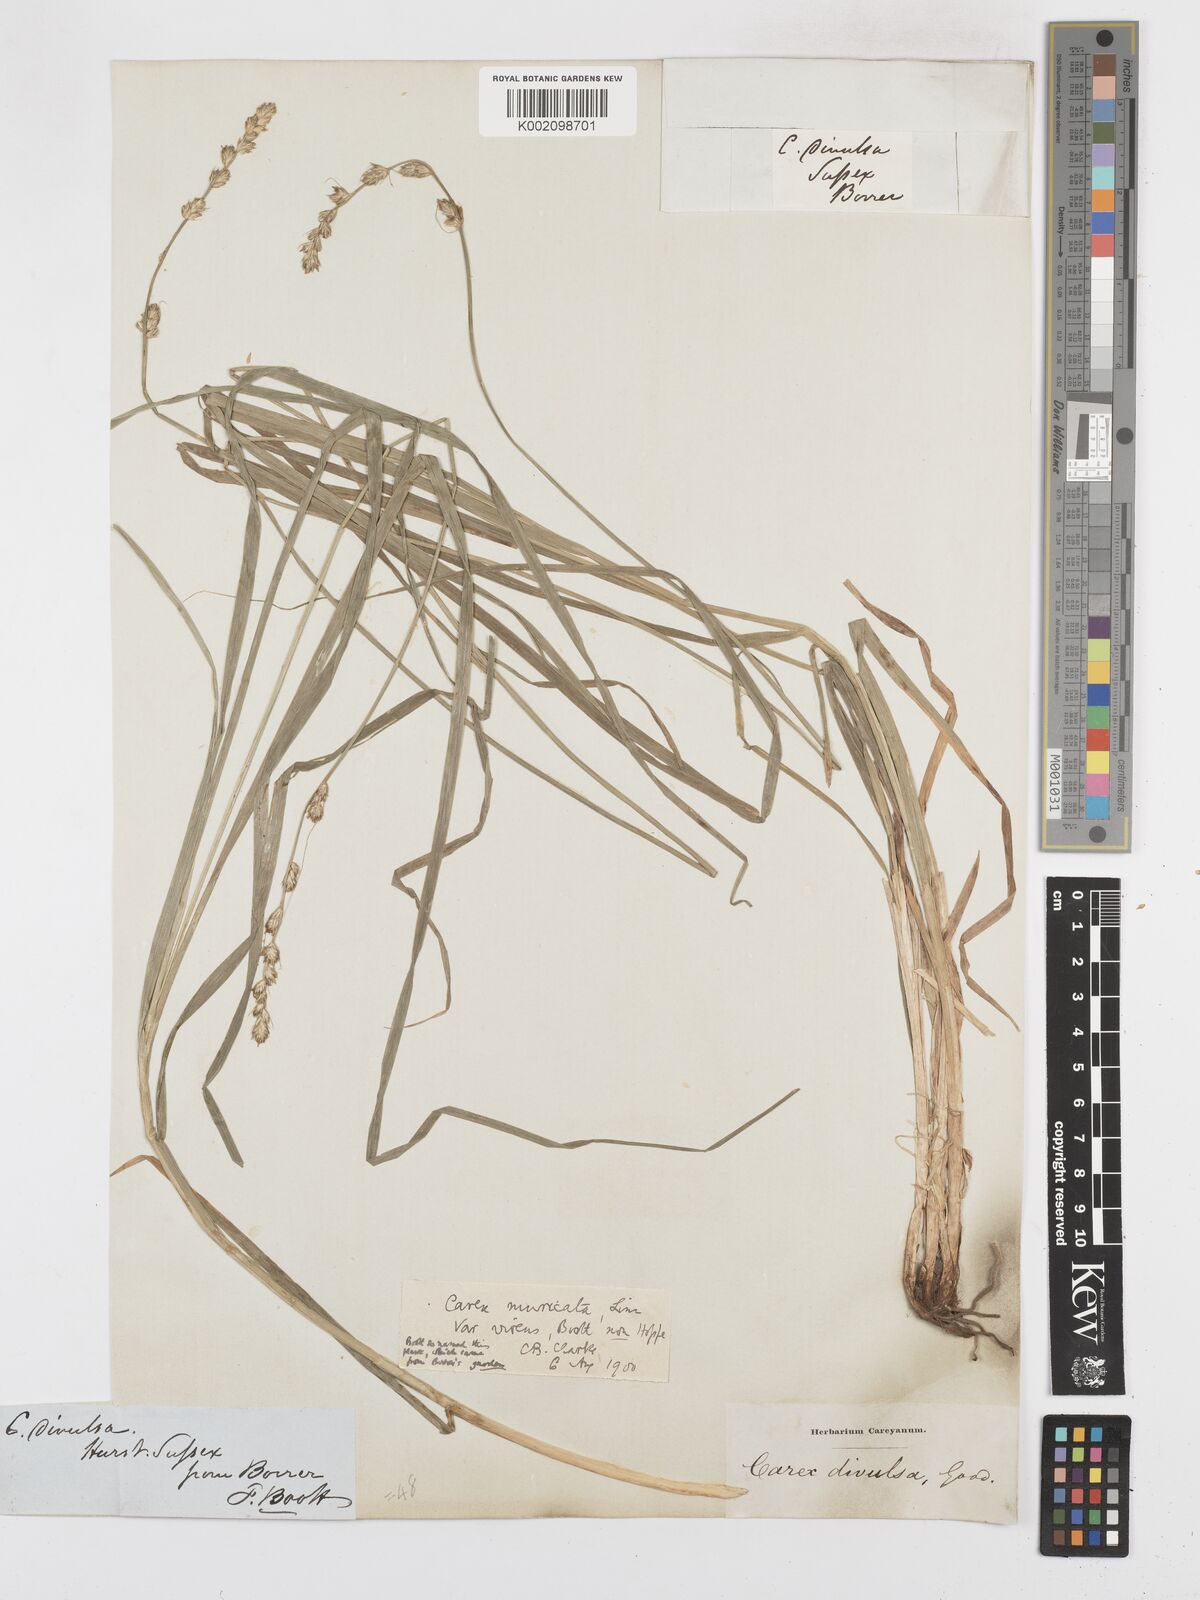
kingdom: Plantae
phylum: Tracheophyta
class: Liliopsida
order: Poales
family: Cyperaceae
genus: Carex
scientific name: Carex muricata
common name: Rough sedge
